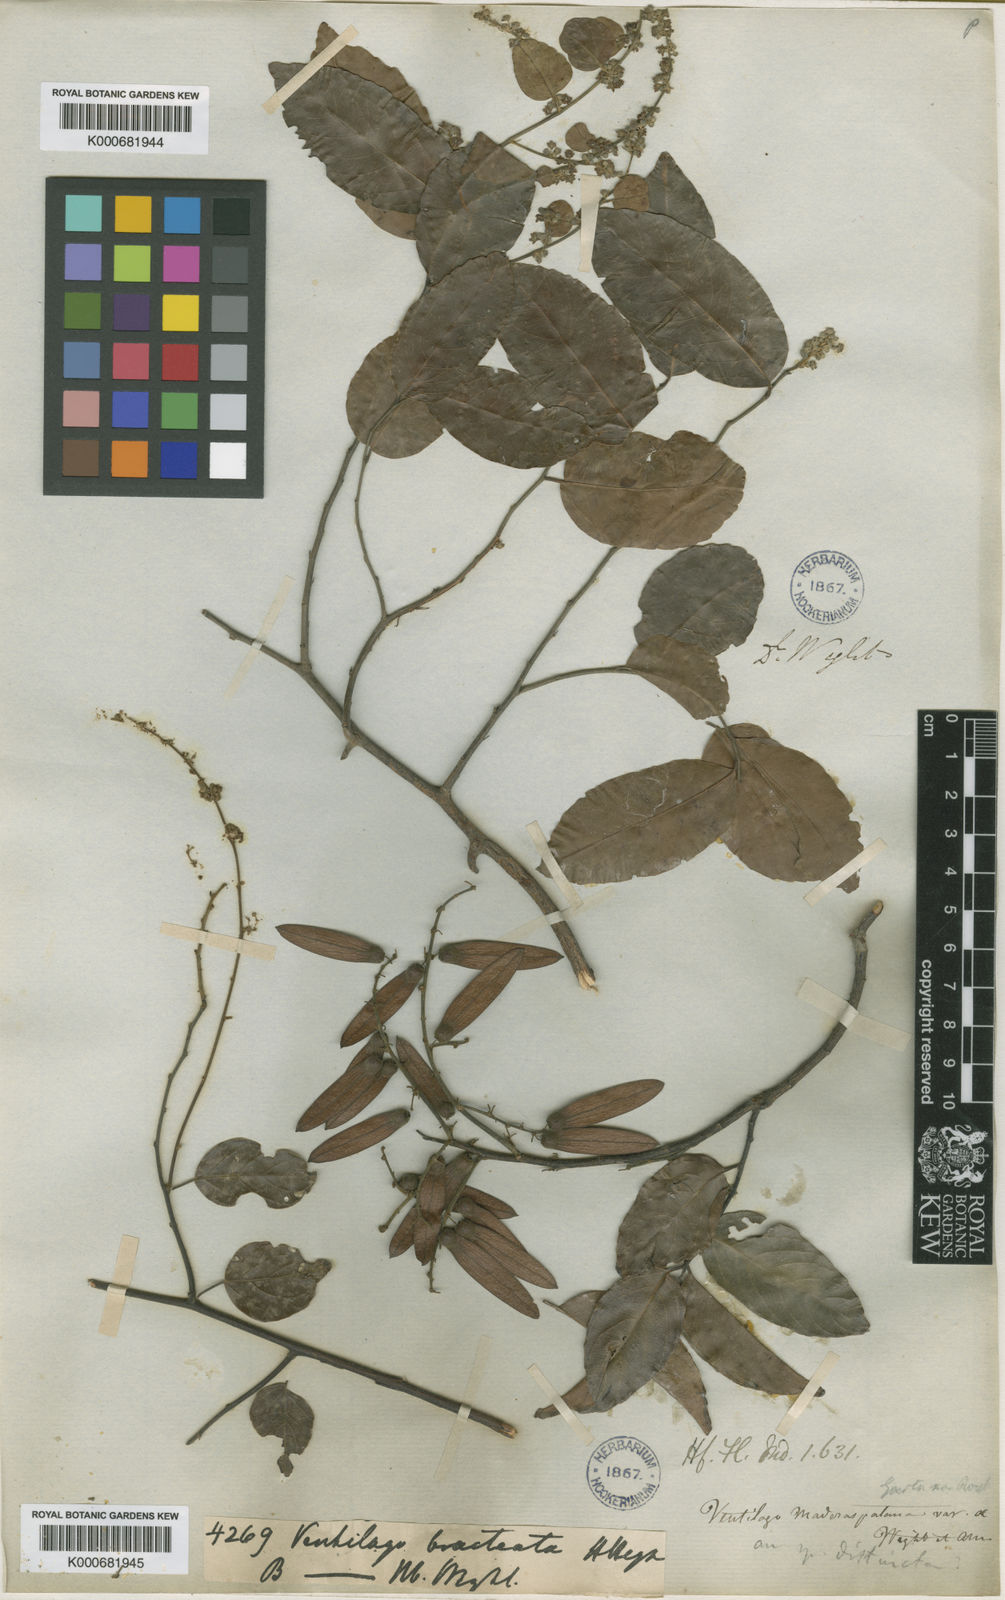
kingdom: Plantae
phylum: Tracheophyta
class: Magnoliopsida
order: Rosales
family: Rhamnaceae
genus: Ventilago
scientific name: Ventilago madraspatana
